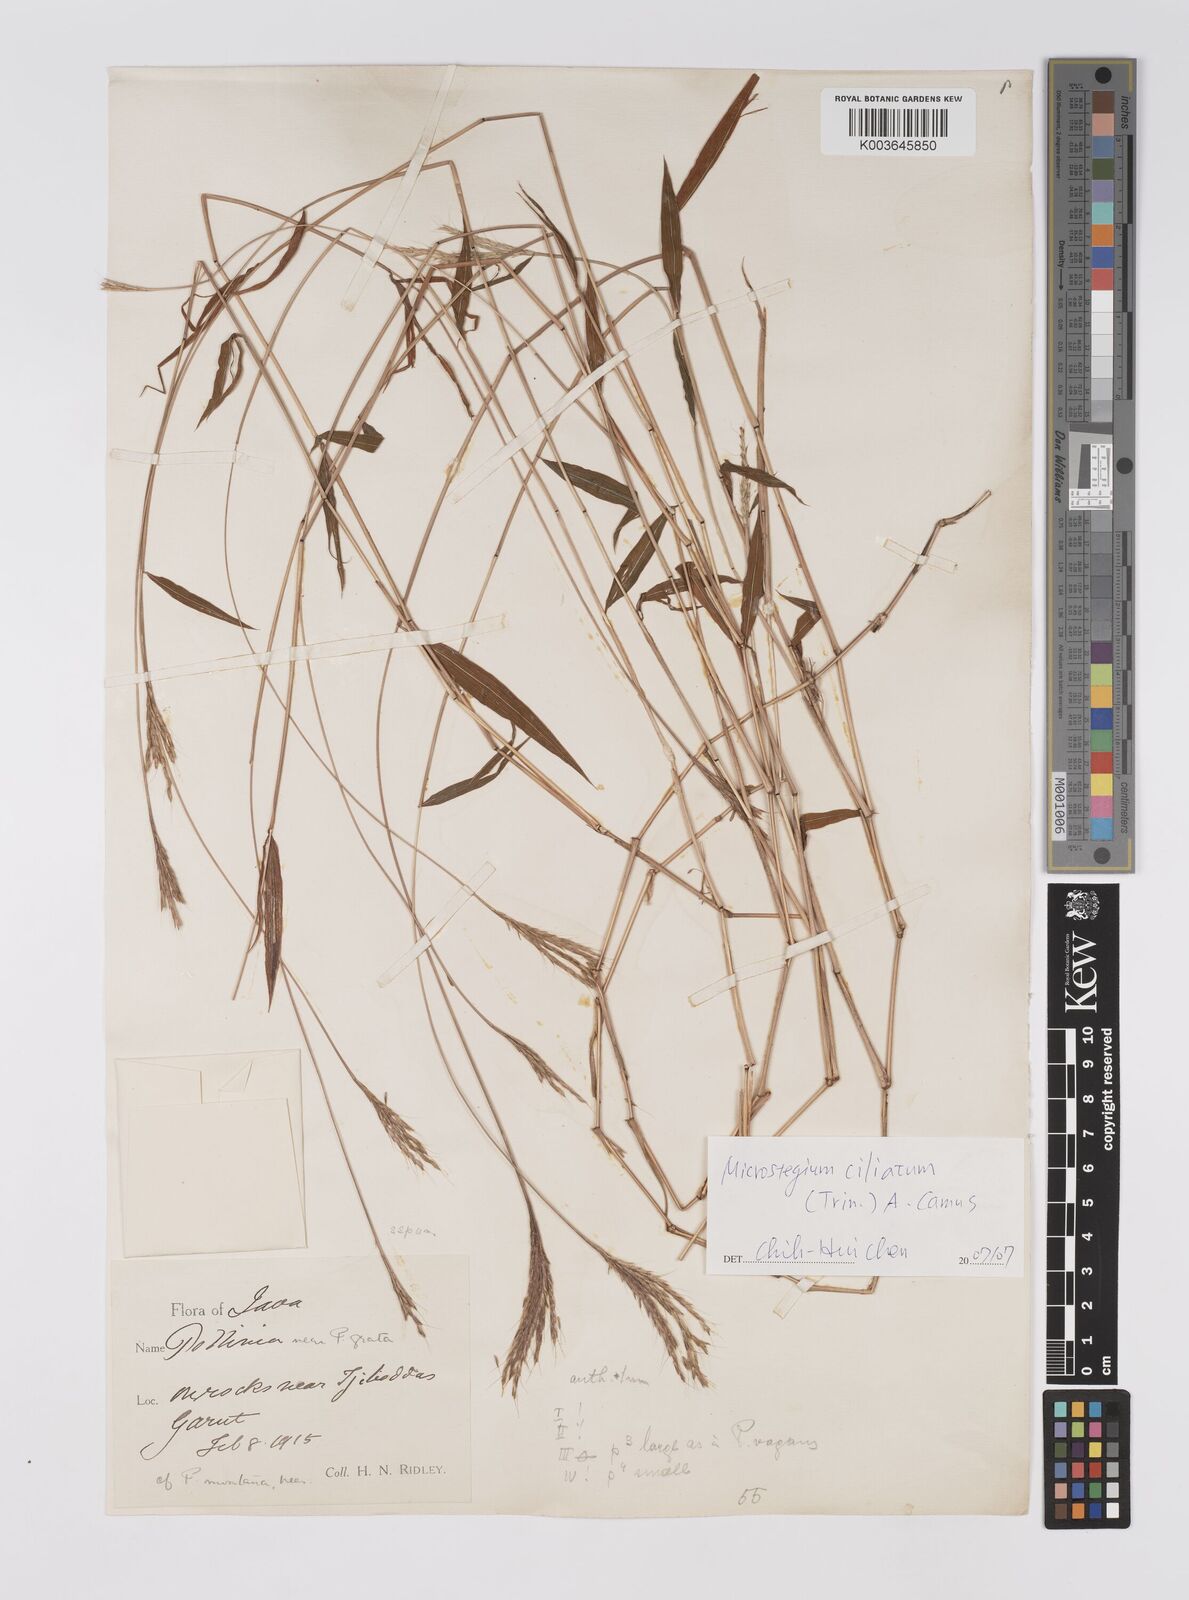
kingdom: Plantae
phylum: Tracheophyta
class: Liliopsida
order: Poales
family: Poaceae
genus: Microstegium
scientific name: Microstegium fasciculatum
